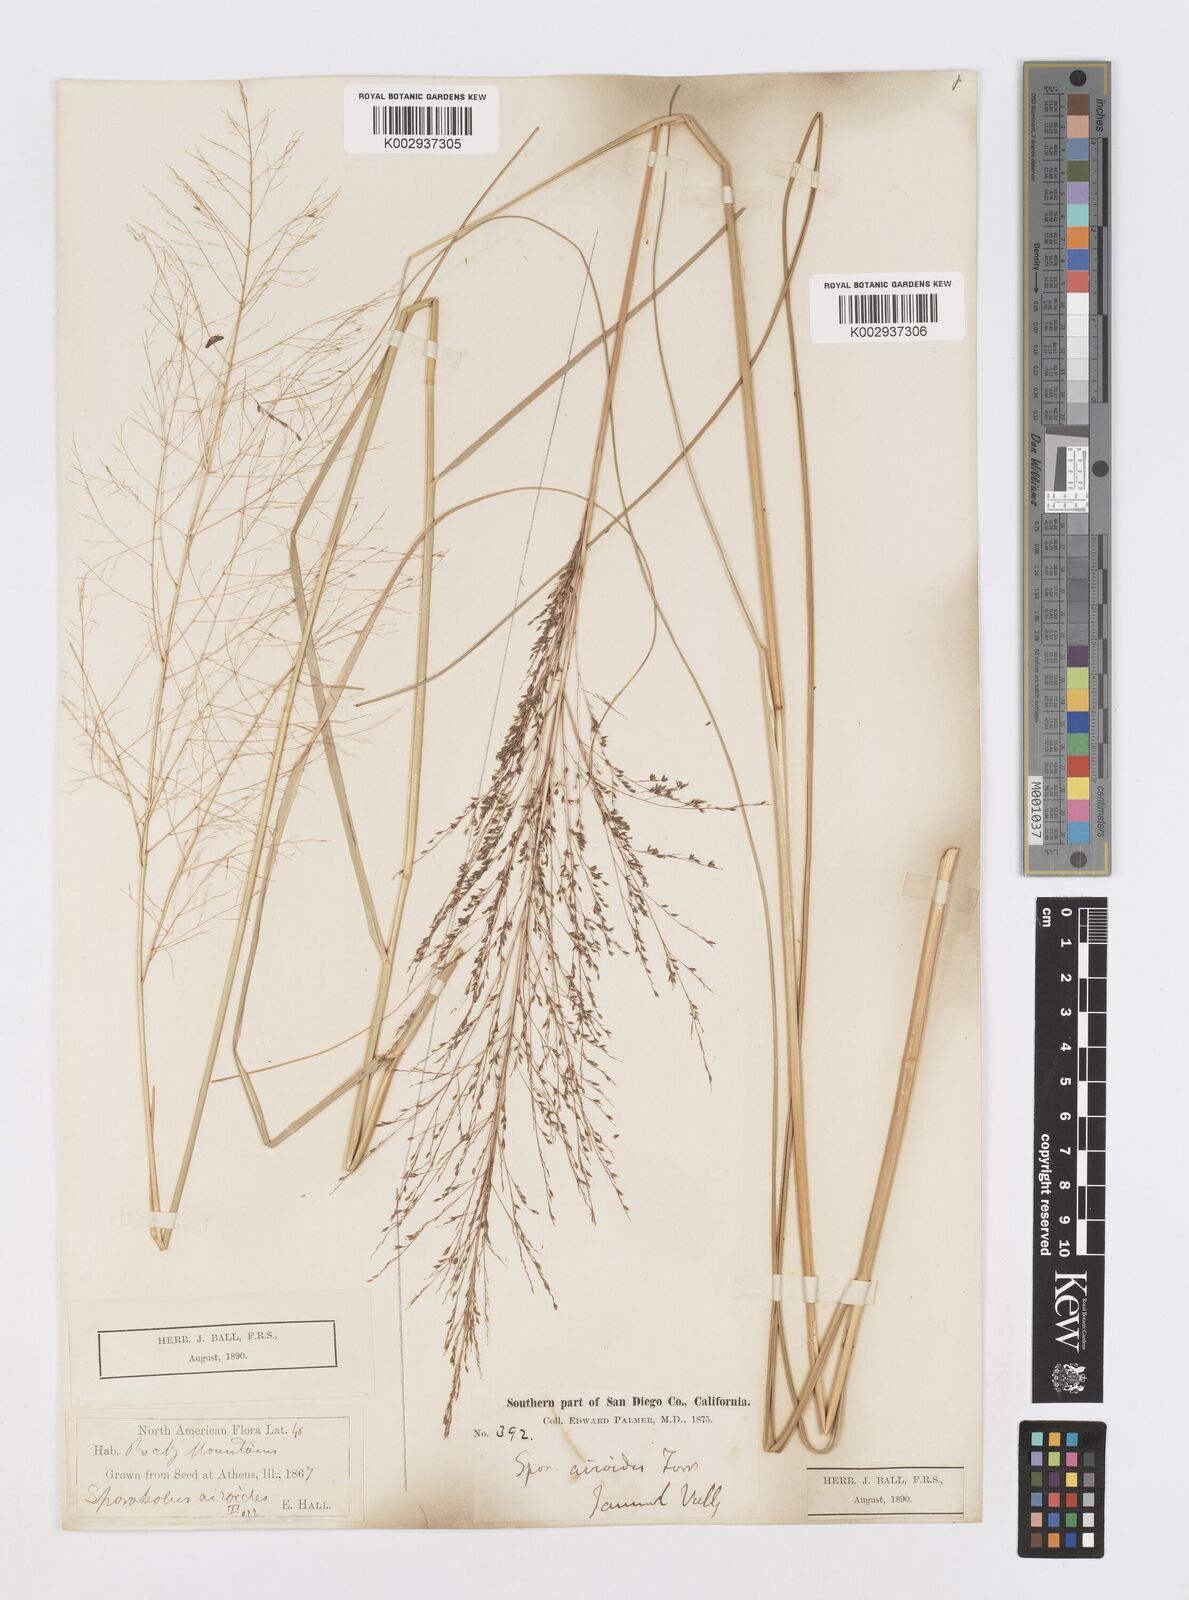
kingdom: Plantae
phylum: Tracheophyta
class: Liliopsida
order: Poales
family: Poaceae
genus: Sporobolus
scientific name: Sporobolus airoides
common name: Alkali sacaton
